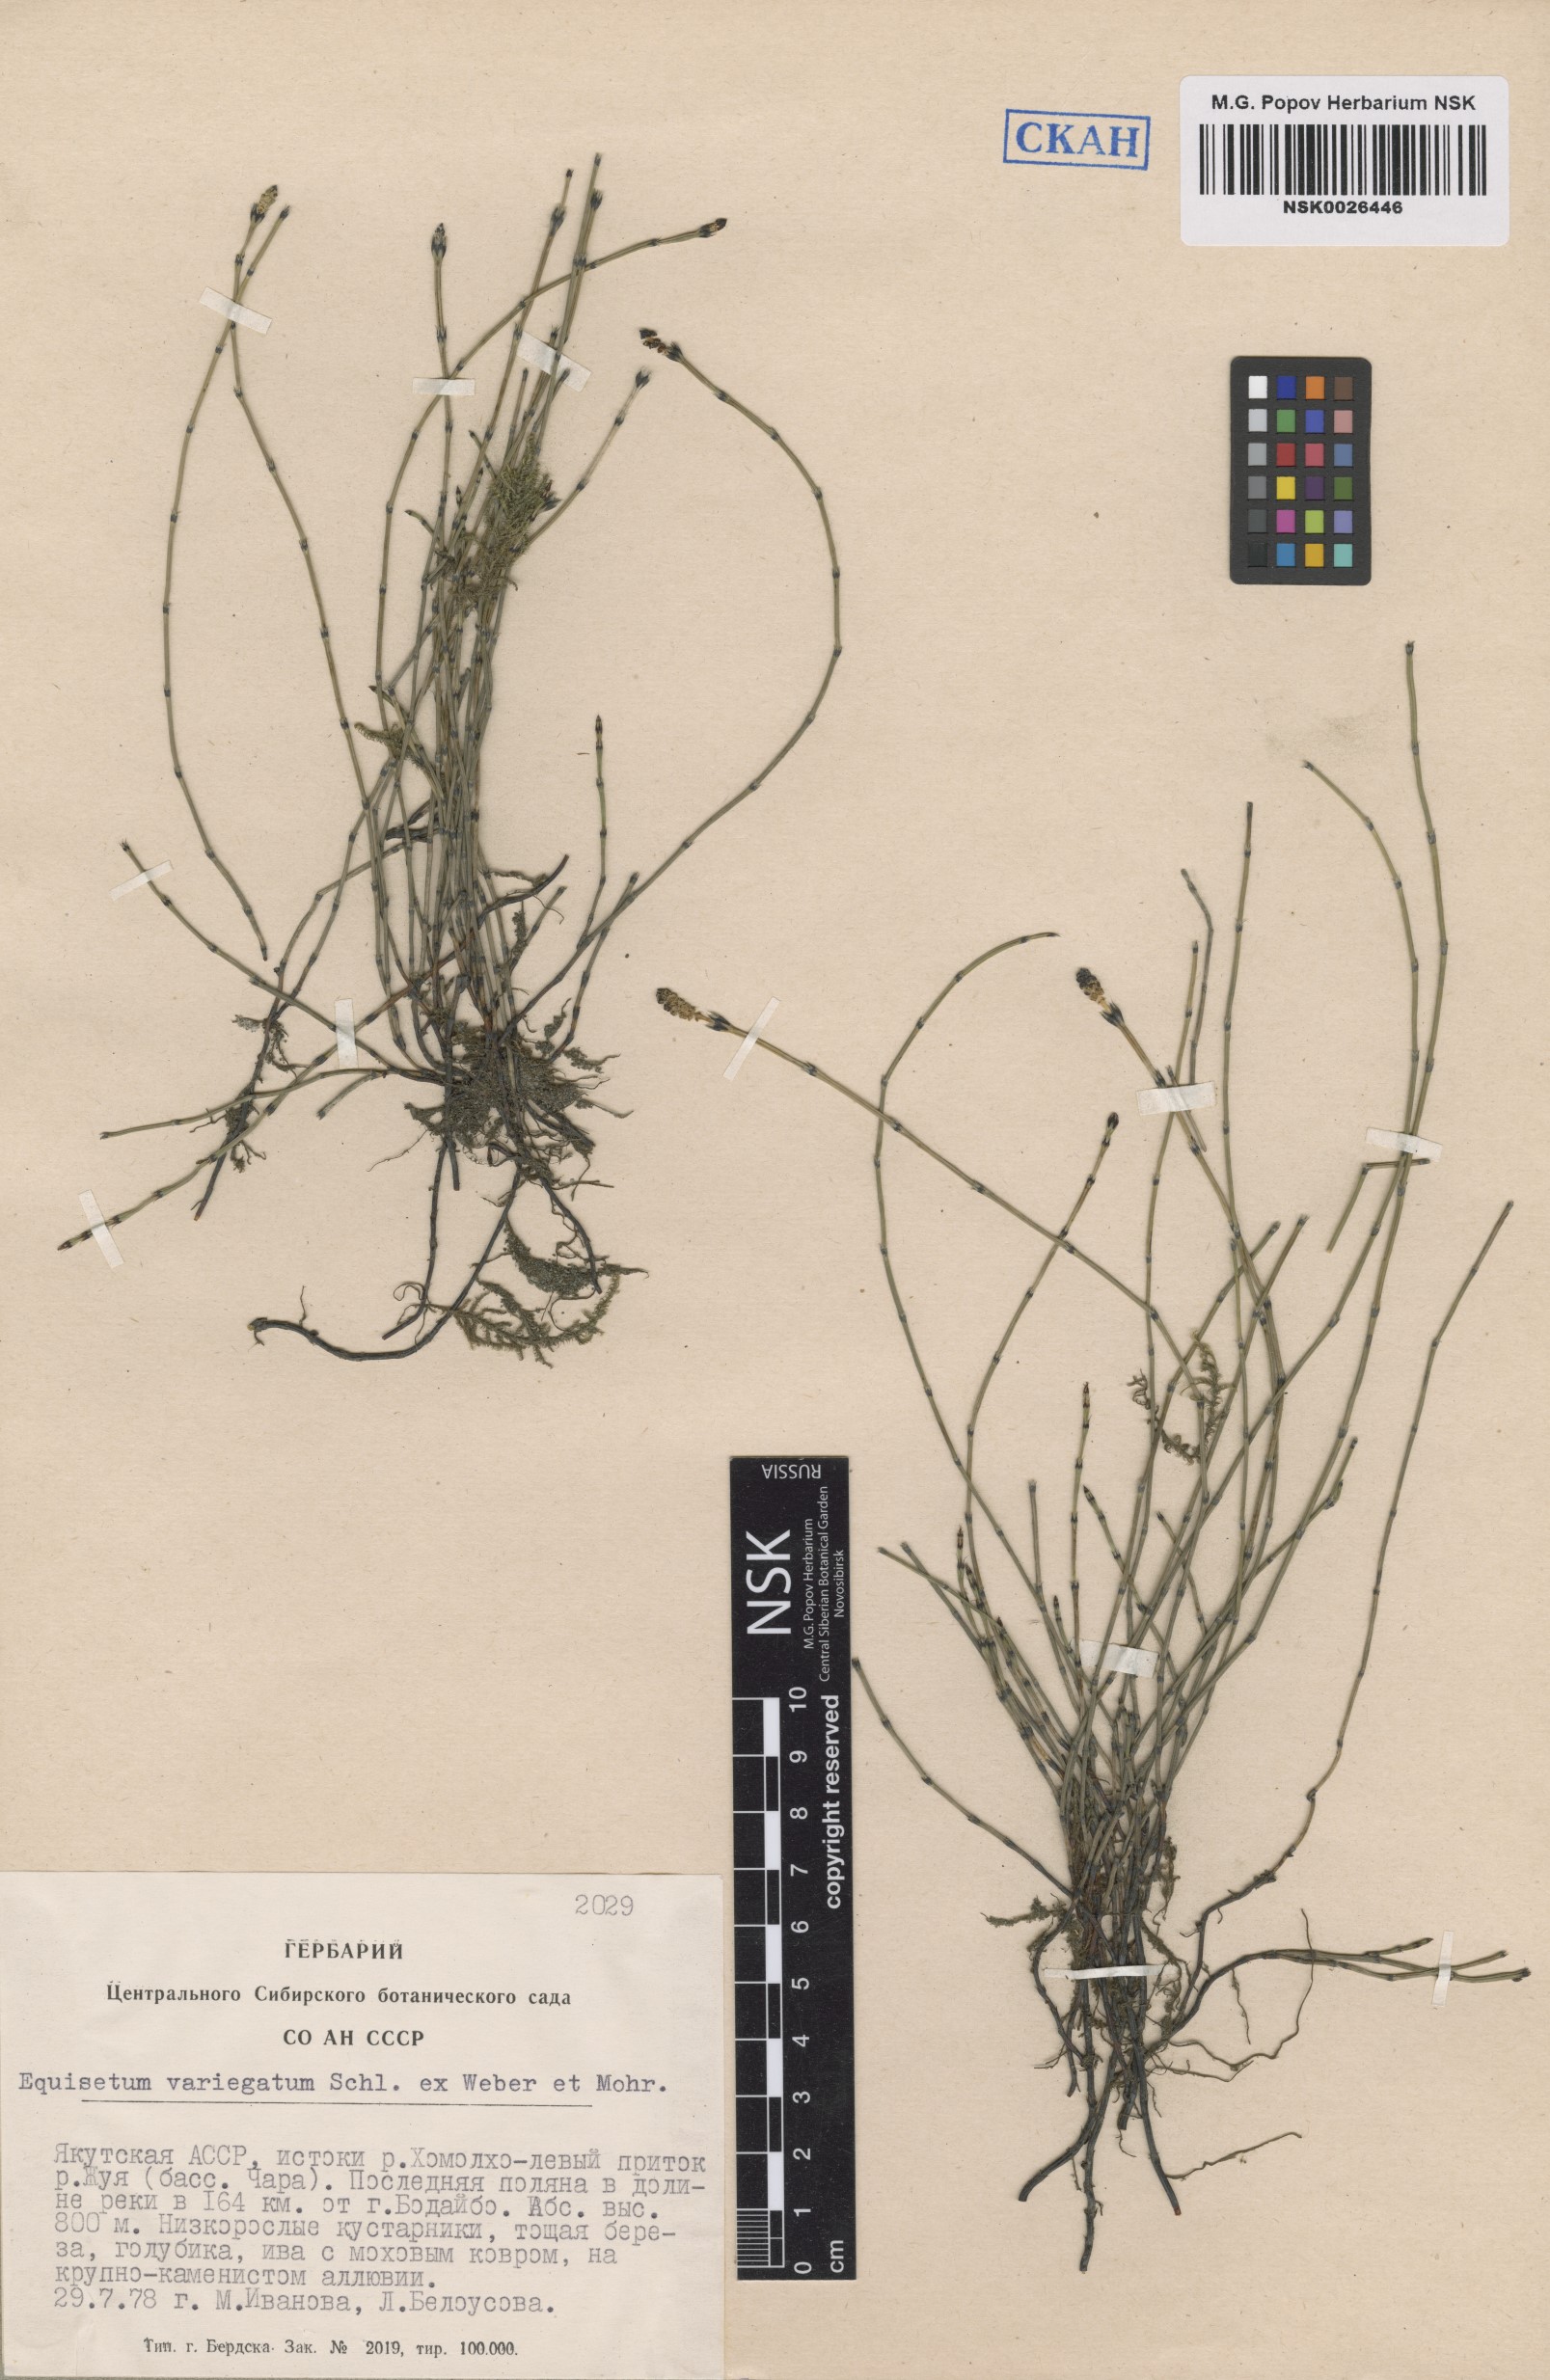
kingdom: Plantae
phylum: Tracheophyta
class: Polypodiopsida
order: Equisetales
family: Equisetaceae
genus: Equisetum
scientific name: Equisetum variegatum
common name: Variegated horsetail
